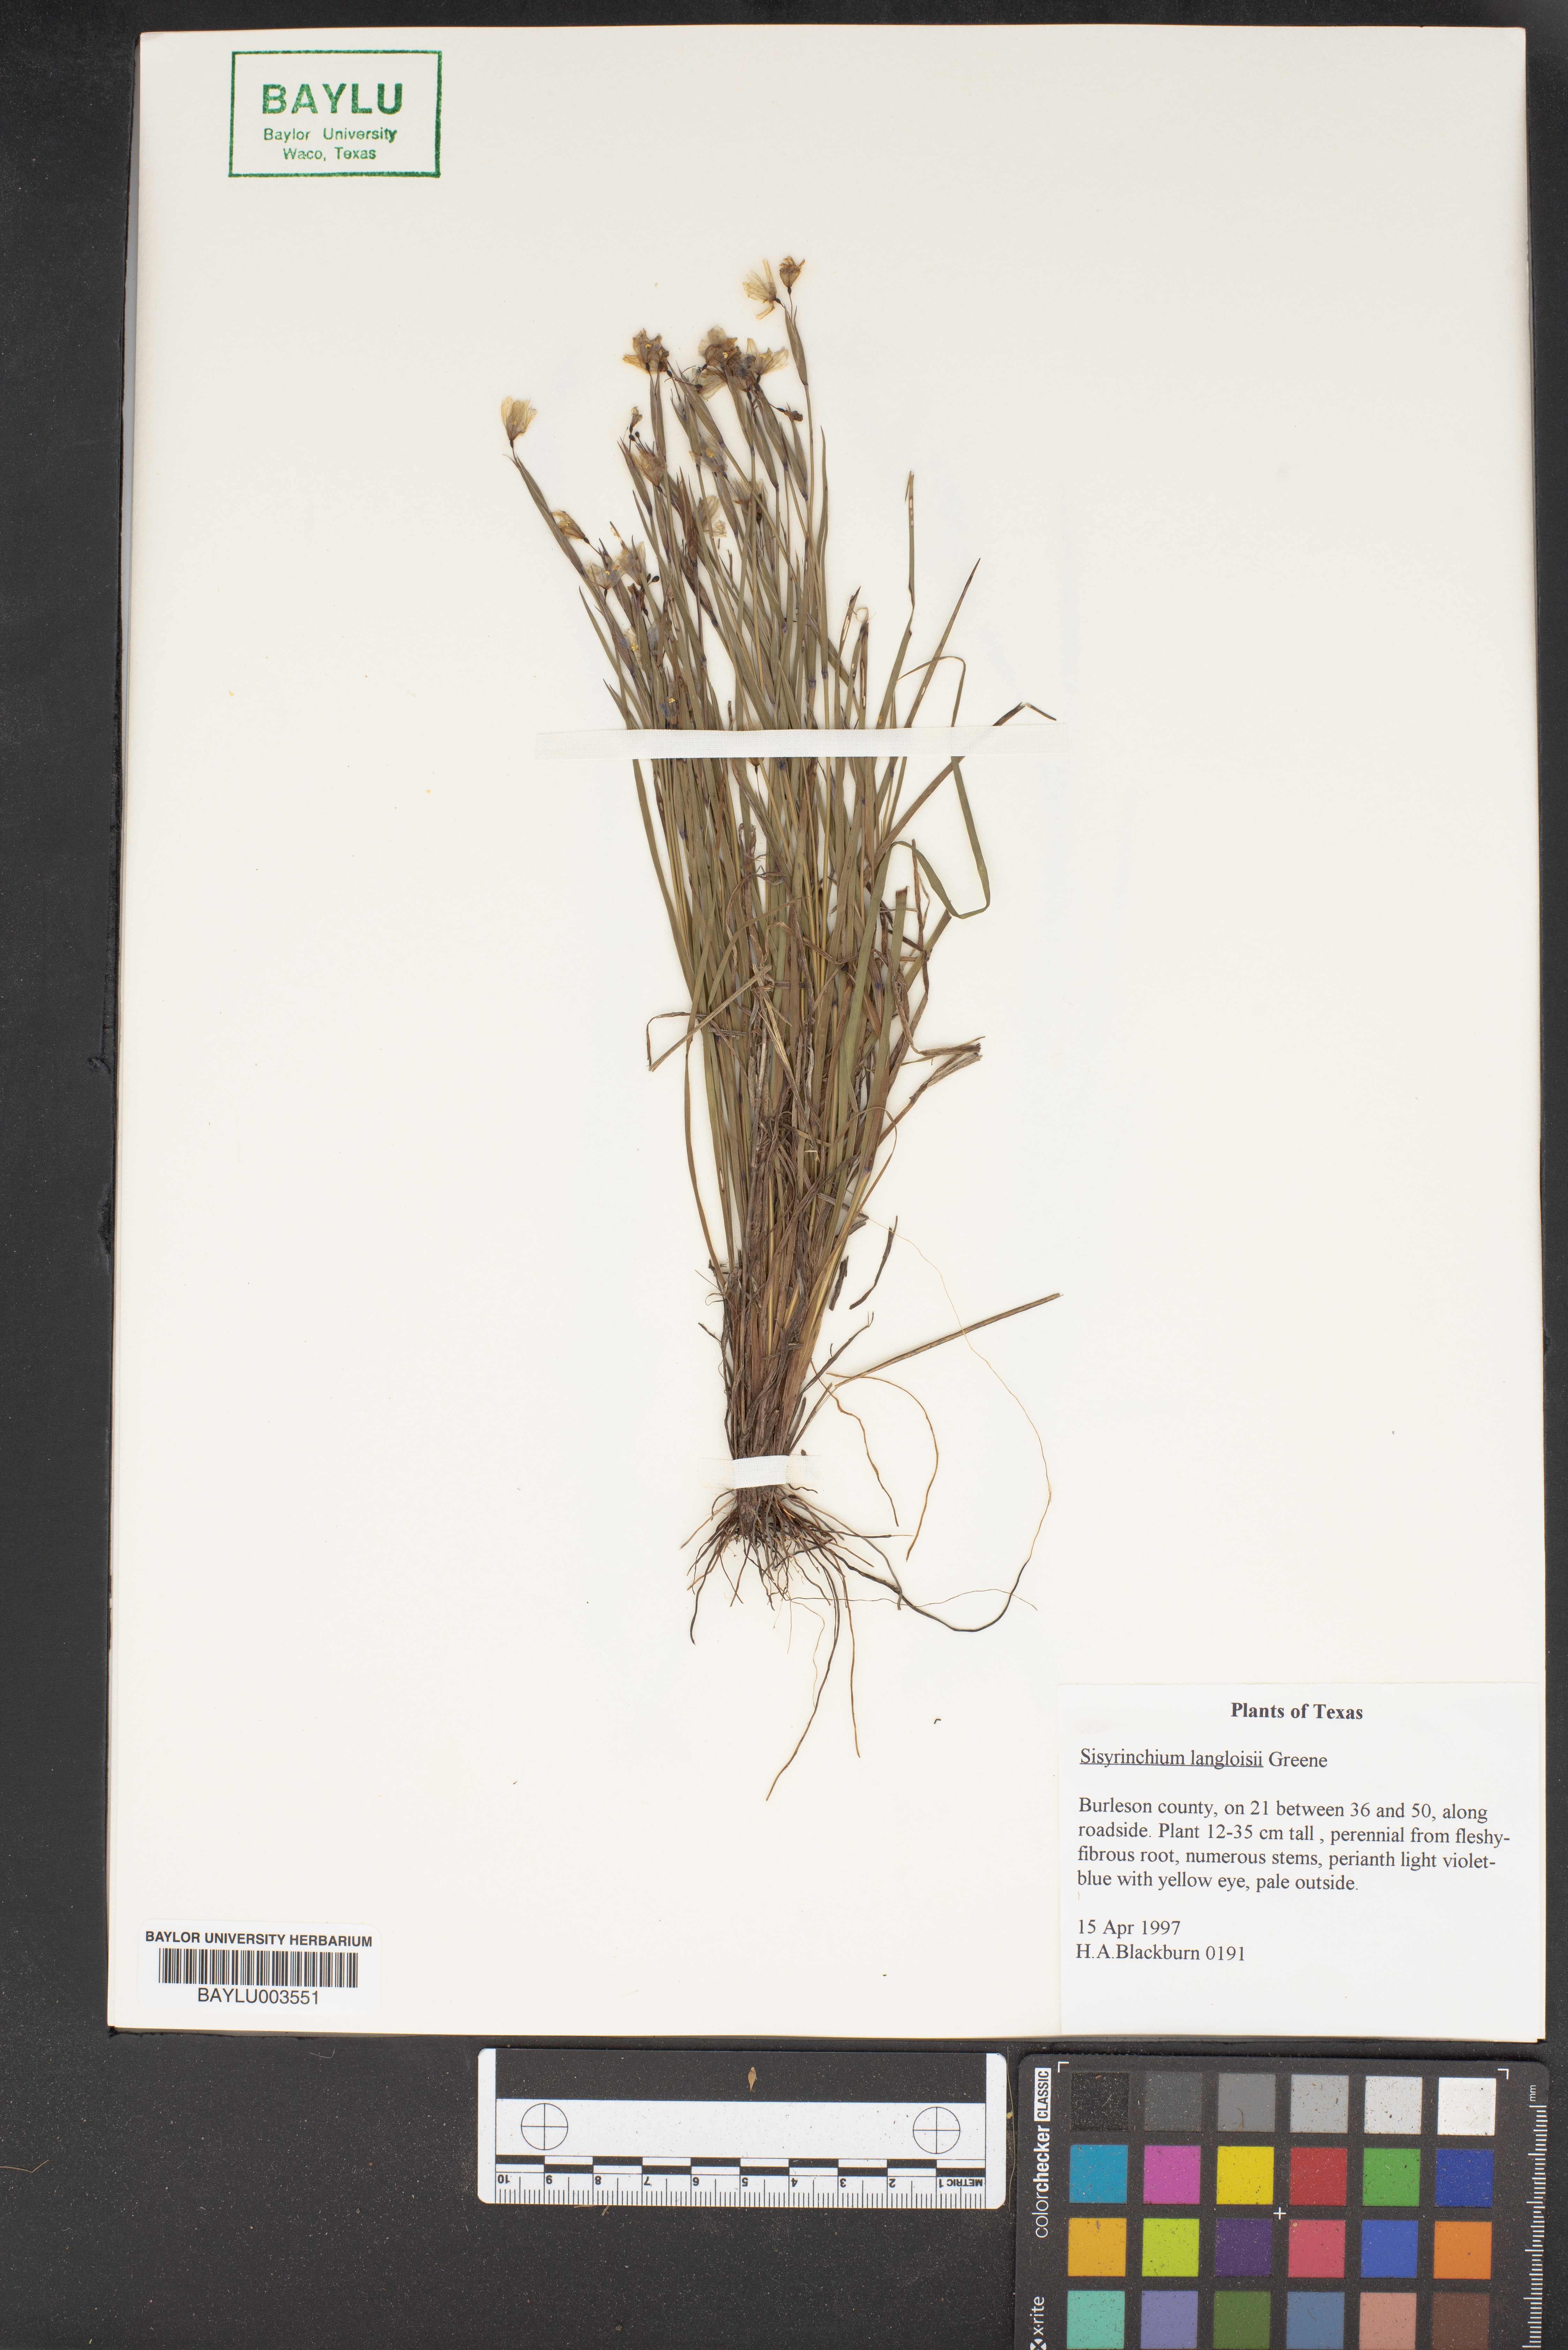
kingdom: Plantae
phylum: Tracheophyta
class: Liliopsida
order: Asparagales
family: Iridaceae
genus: Sisyrinchium
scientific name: Sisyrinchium langloisii
